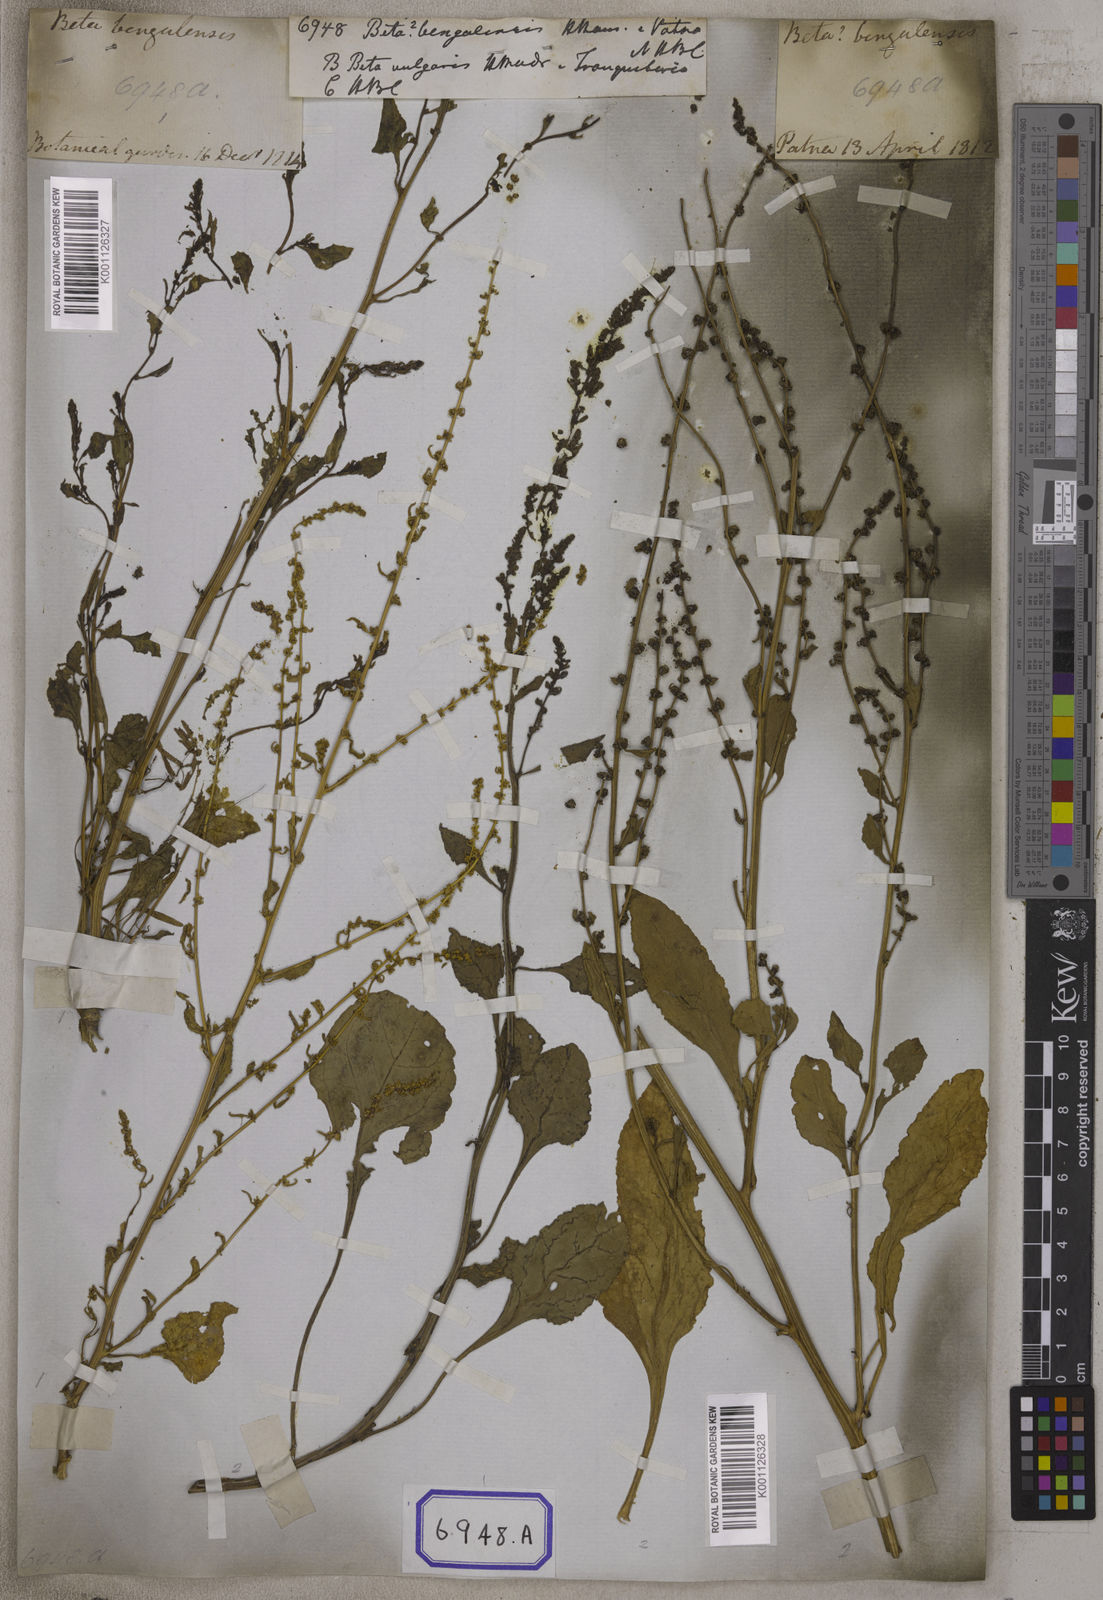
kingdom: Plantae
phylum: Tracheophyta
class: Magnoliopsida
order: Caryophyllales
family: Amaranthaceae
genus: Beta
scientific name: Beta vulgaris
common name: Beet
